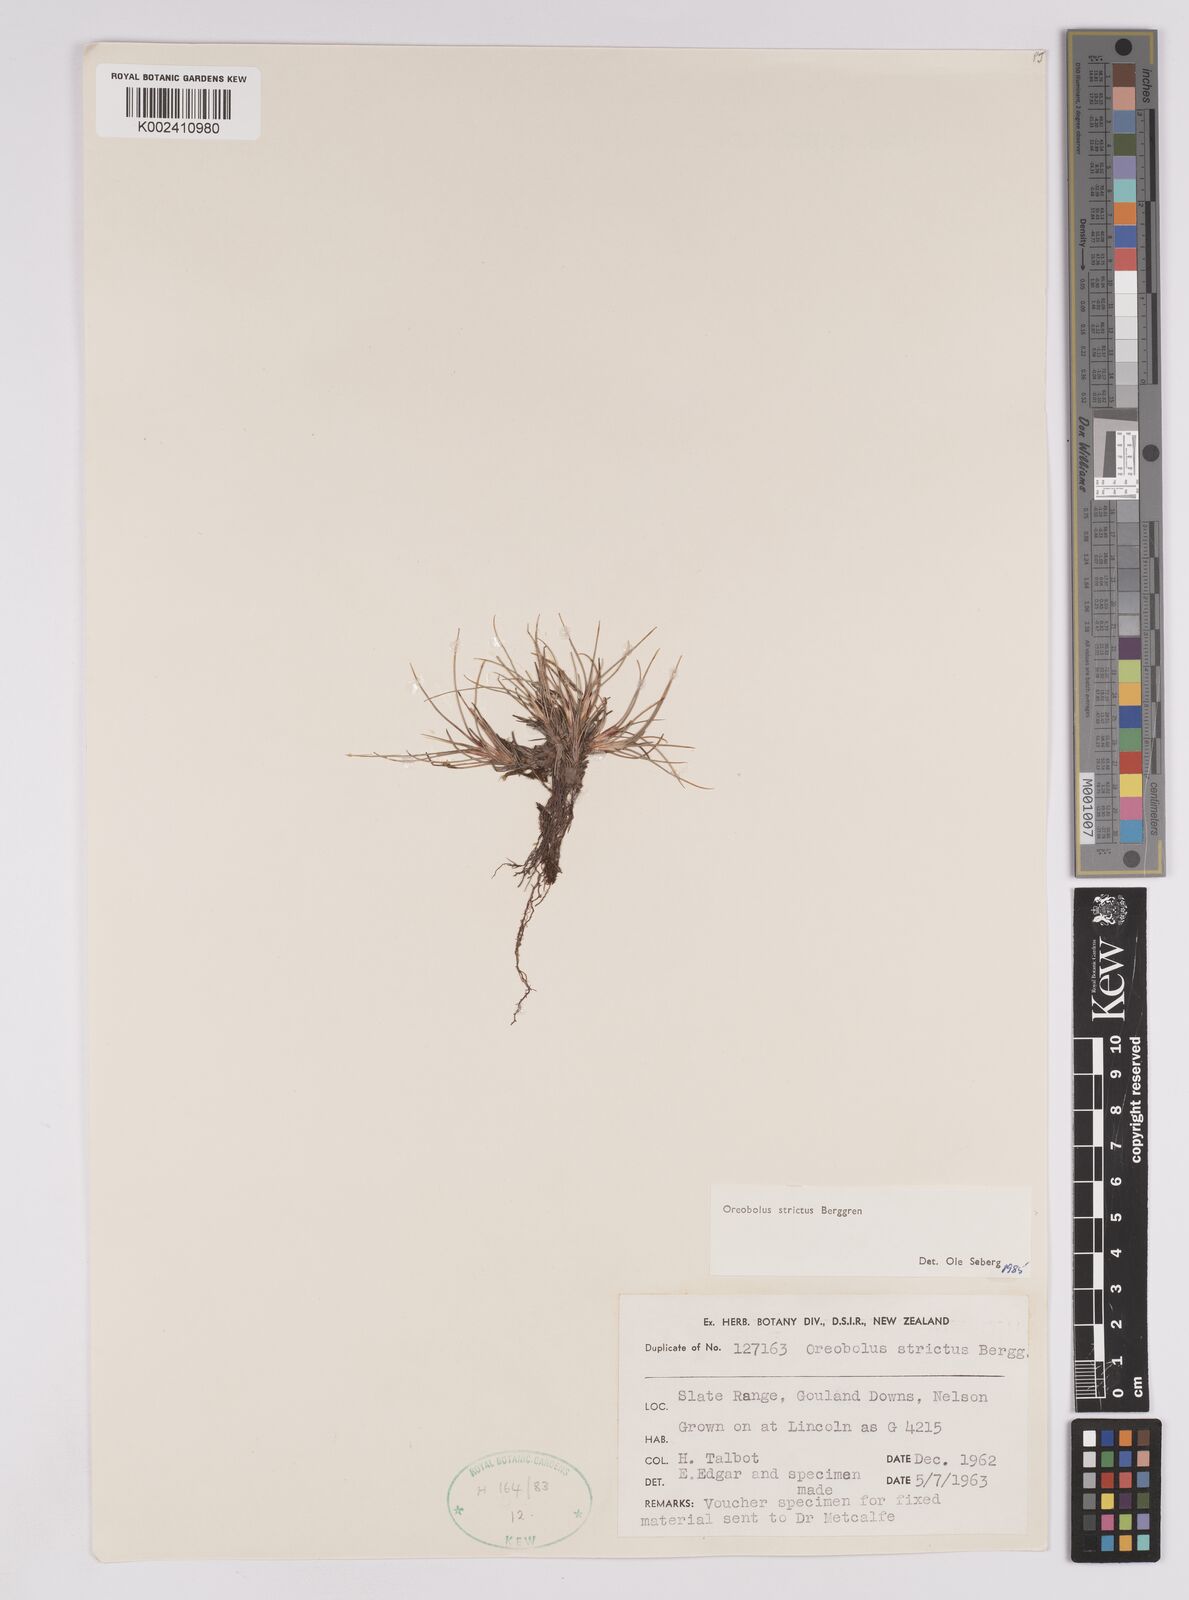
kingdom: Plantae
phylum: Tracheophyta
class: Liliopsida
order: Poales
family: Cyperaceae
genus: Oreobolus
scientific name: Oreobolus strictus
